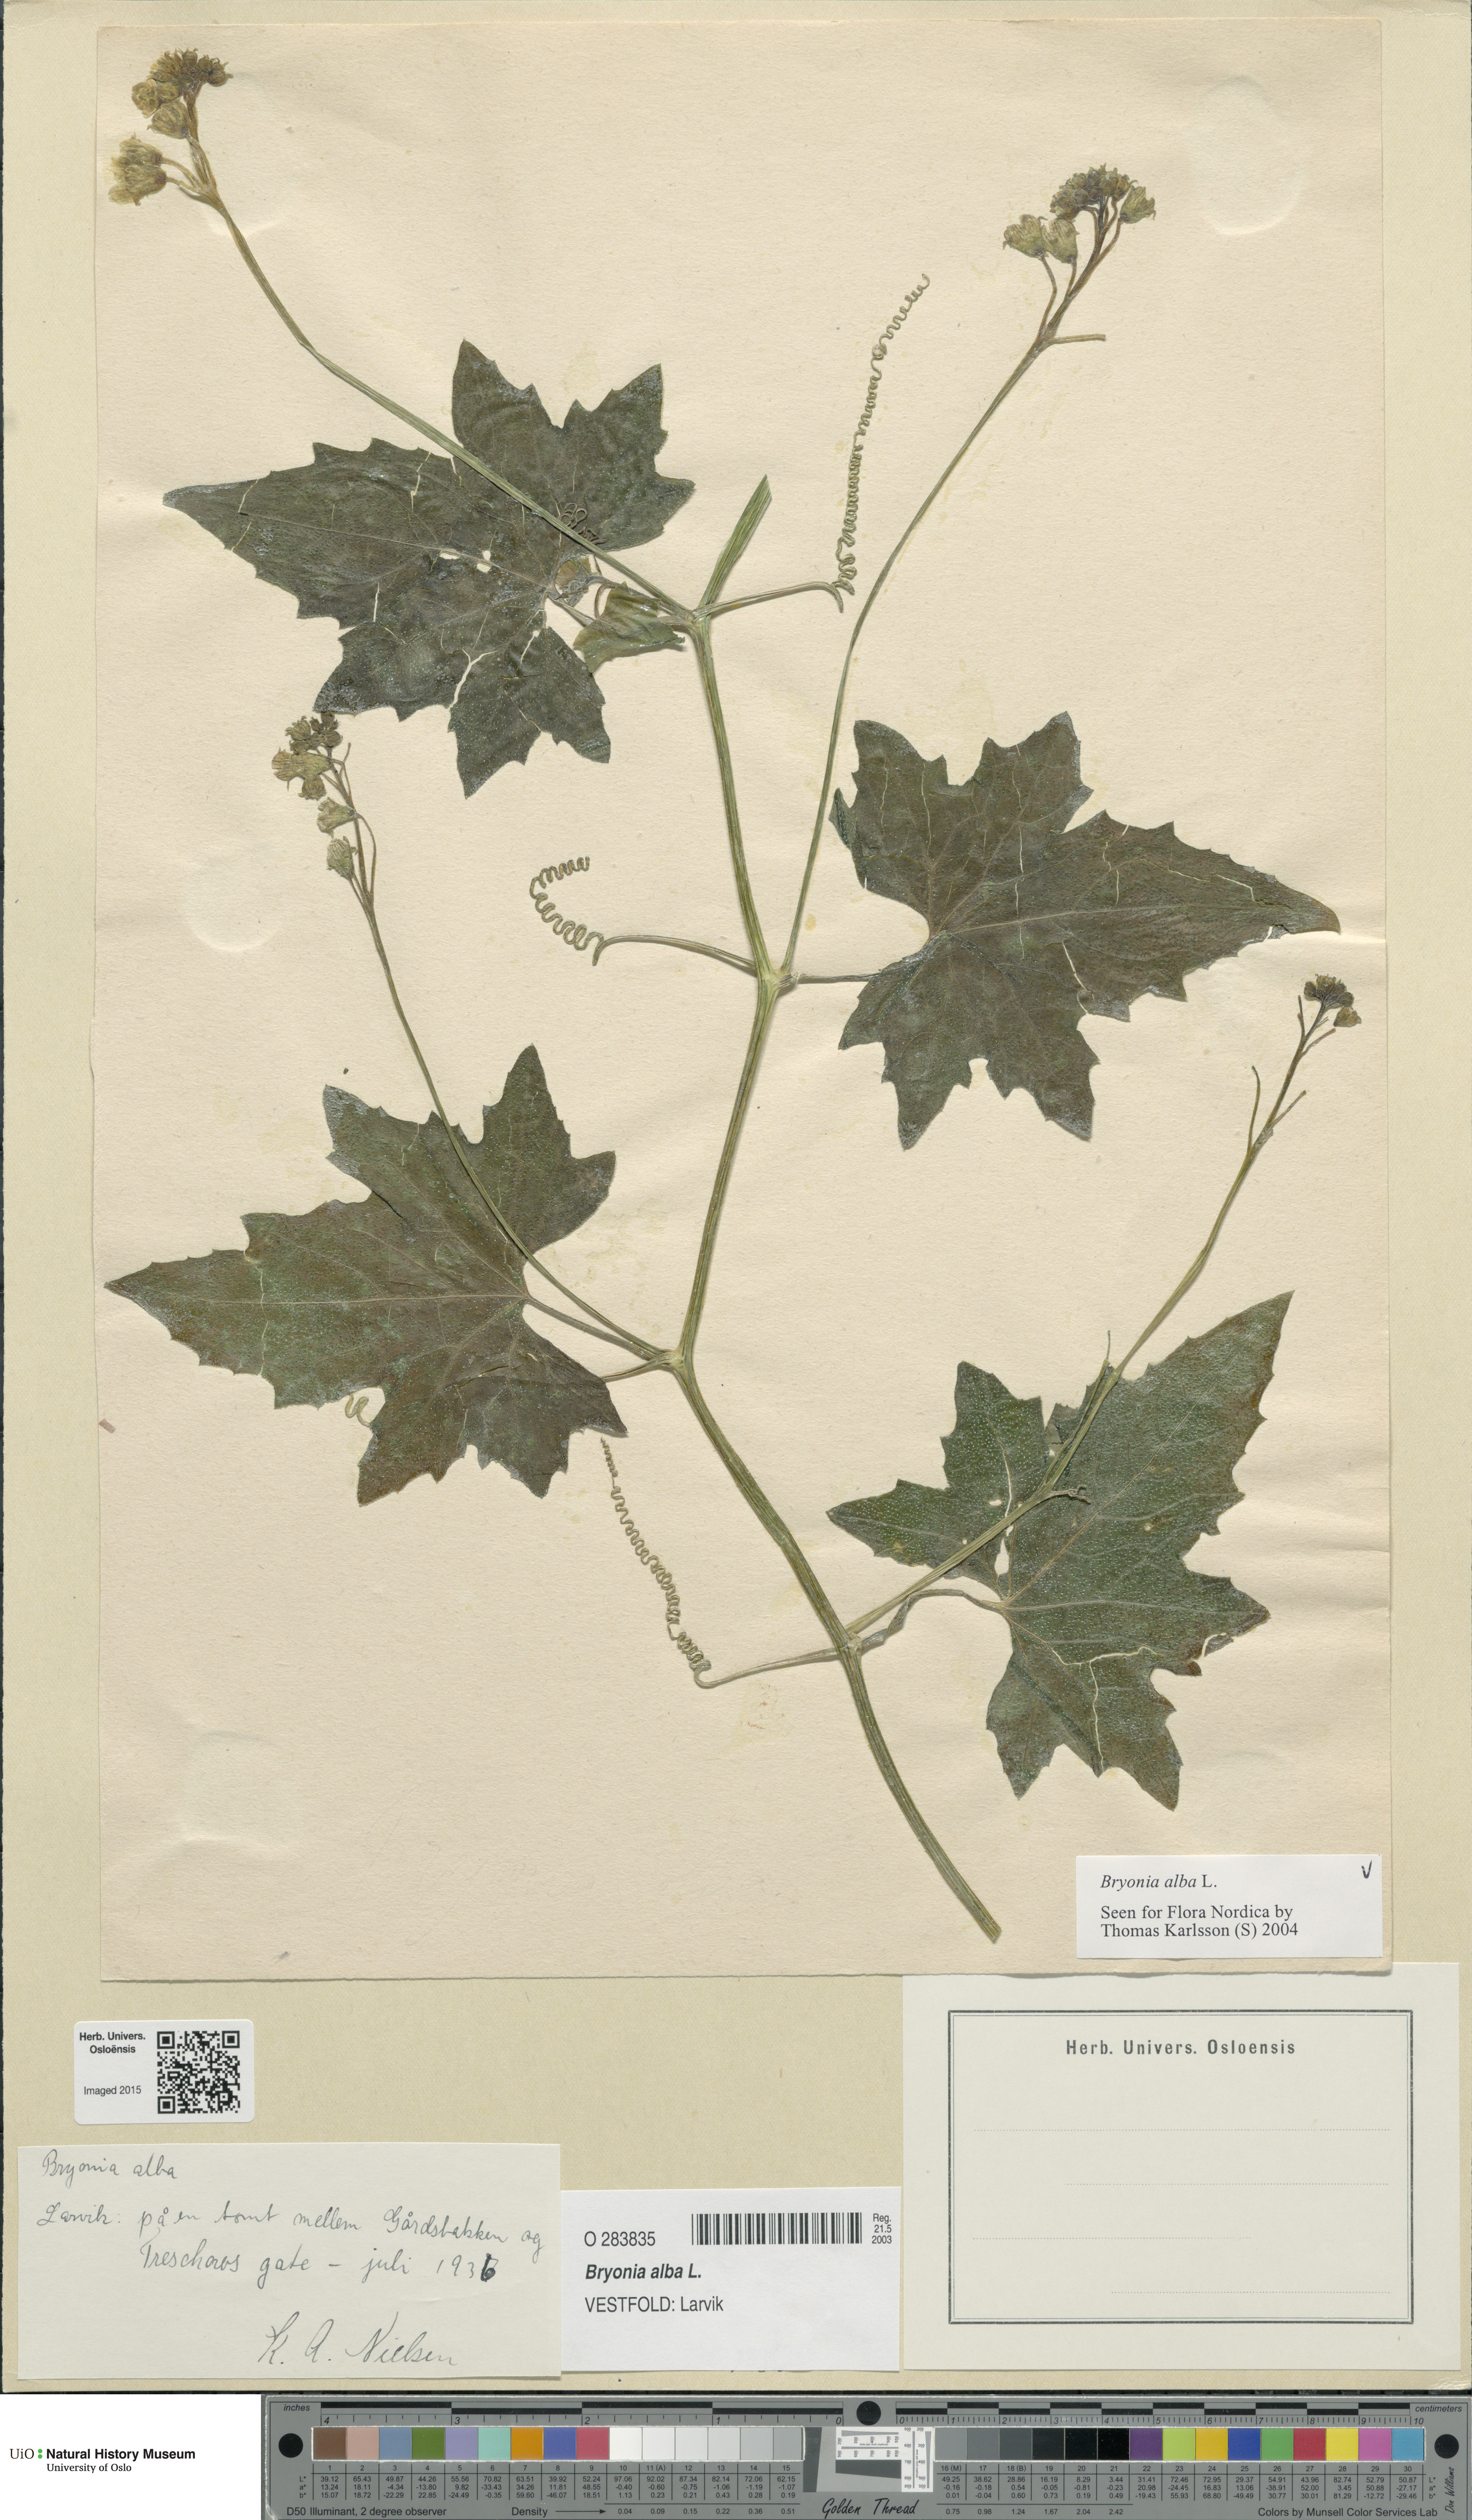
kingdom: Plantae
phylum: Tracheophyta
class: Magnoliopsida
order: Cucurbitales
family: Cucurbitaceae
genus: Bryonia
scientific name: Bryonia alba
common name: White bryony
